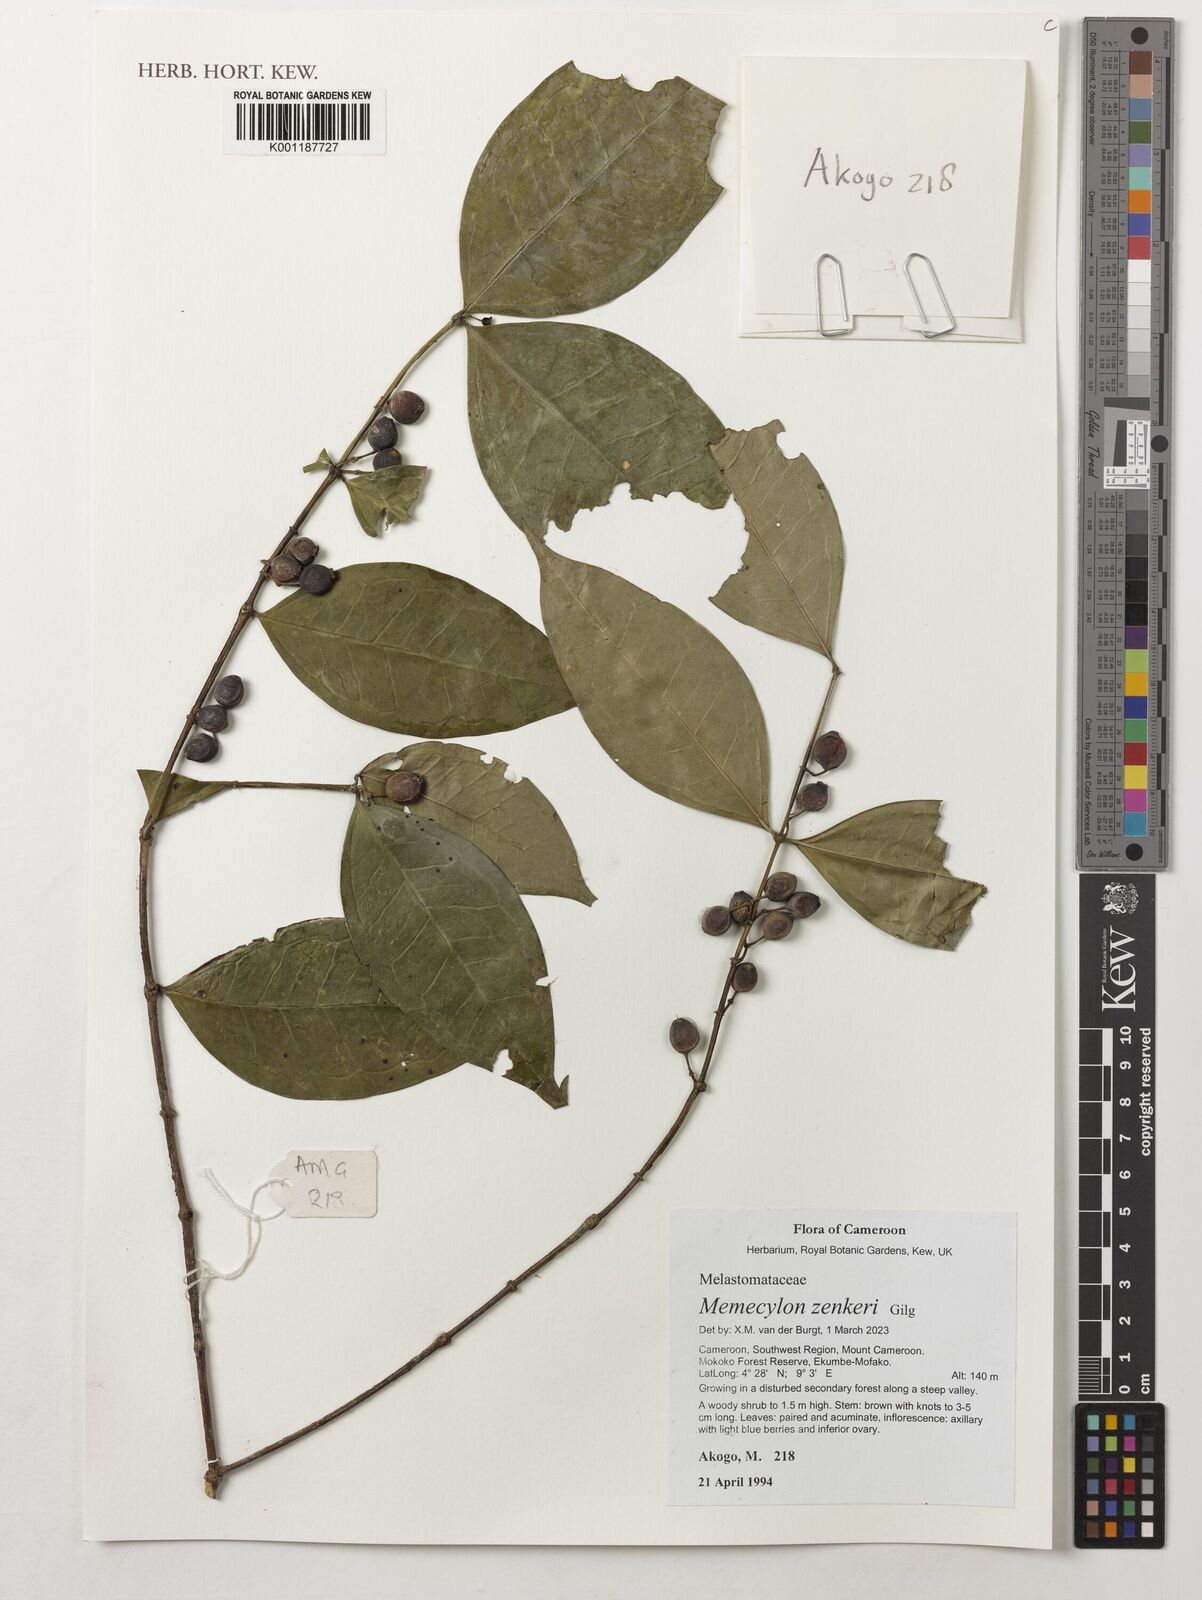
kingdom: Plantae
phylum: Tracheophyta
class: Magnoliopsida
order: Myrtales
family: Melastomataceae
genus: Memecylon
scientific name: Memecylon zenkeri
